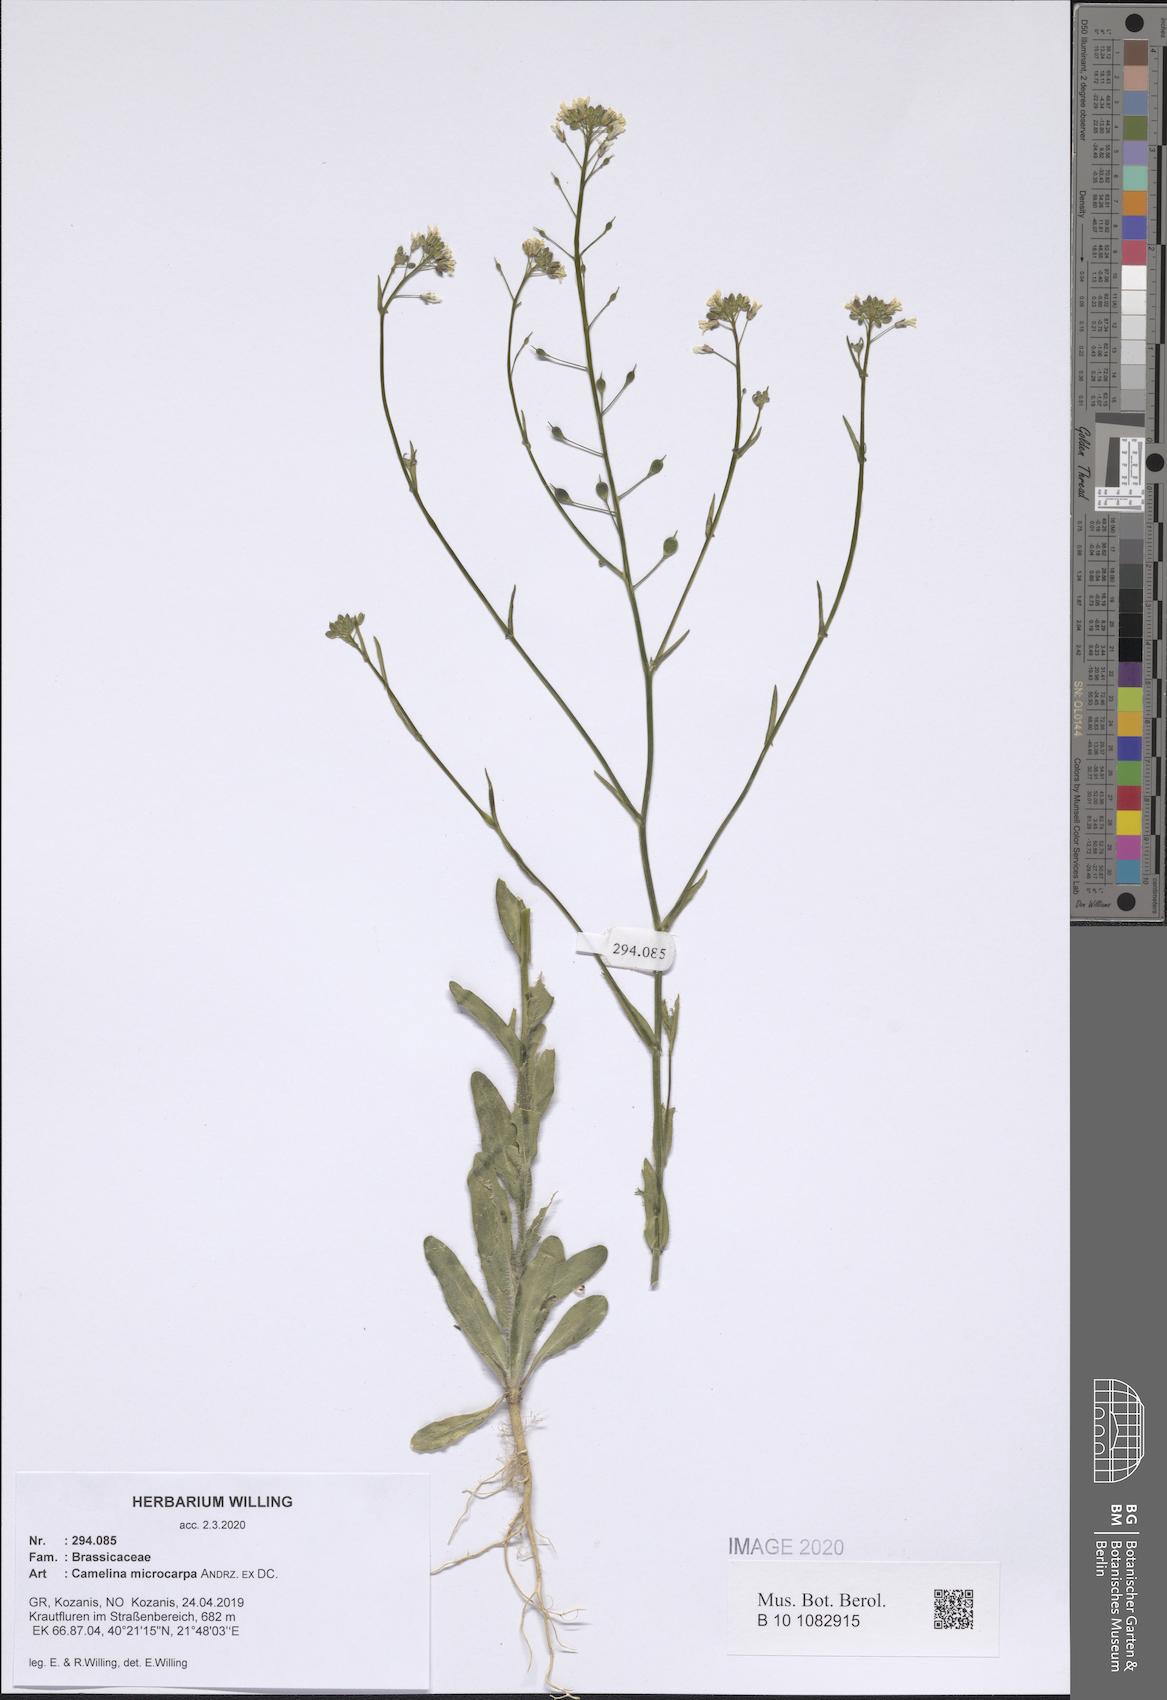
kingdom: Plantae
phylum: Tracheophyta
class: Magnoliopsida
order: Brassicales
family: Brassicaceae
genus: Camelina
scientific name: Camelina microcarpa
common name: Lesser gold-of-pleasure
